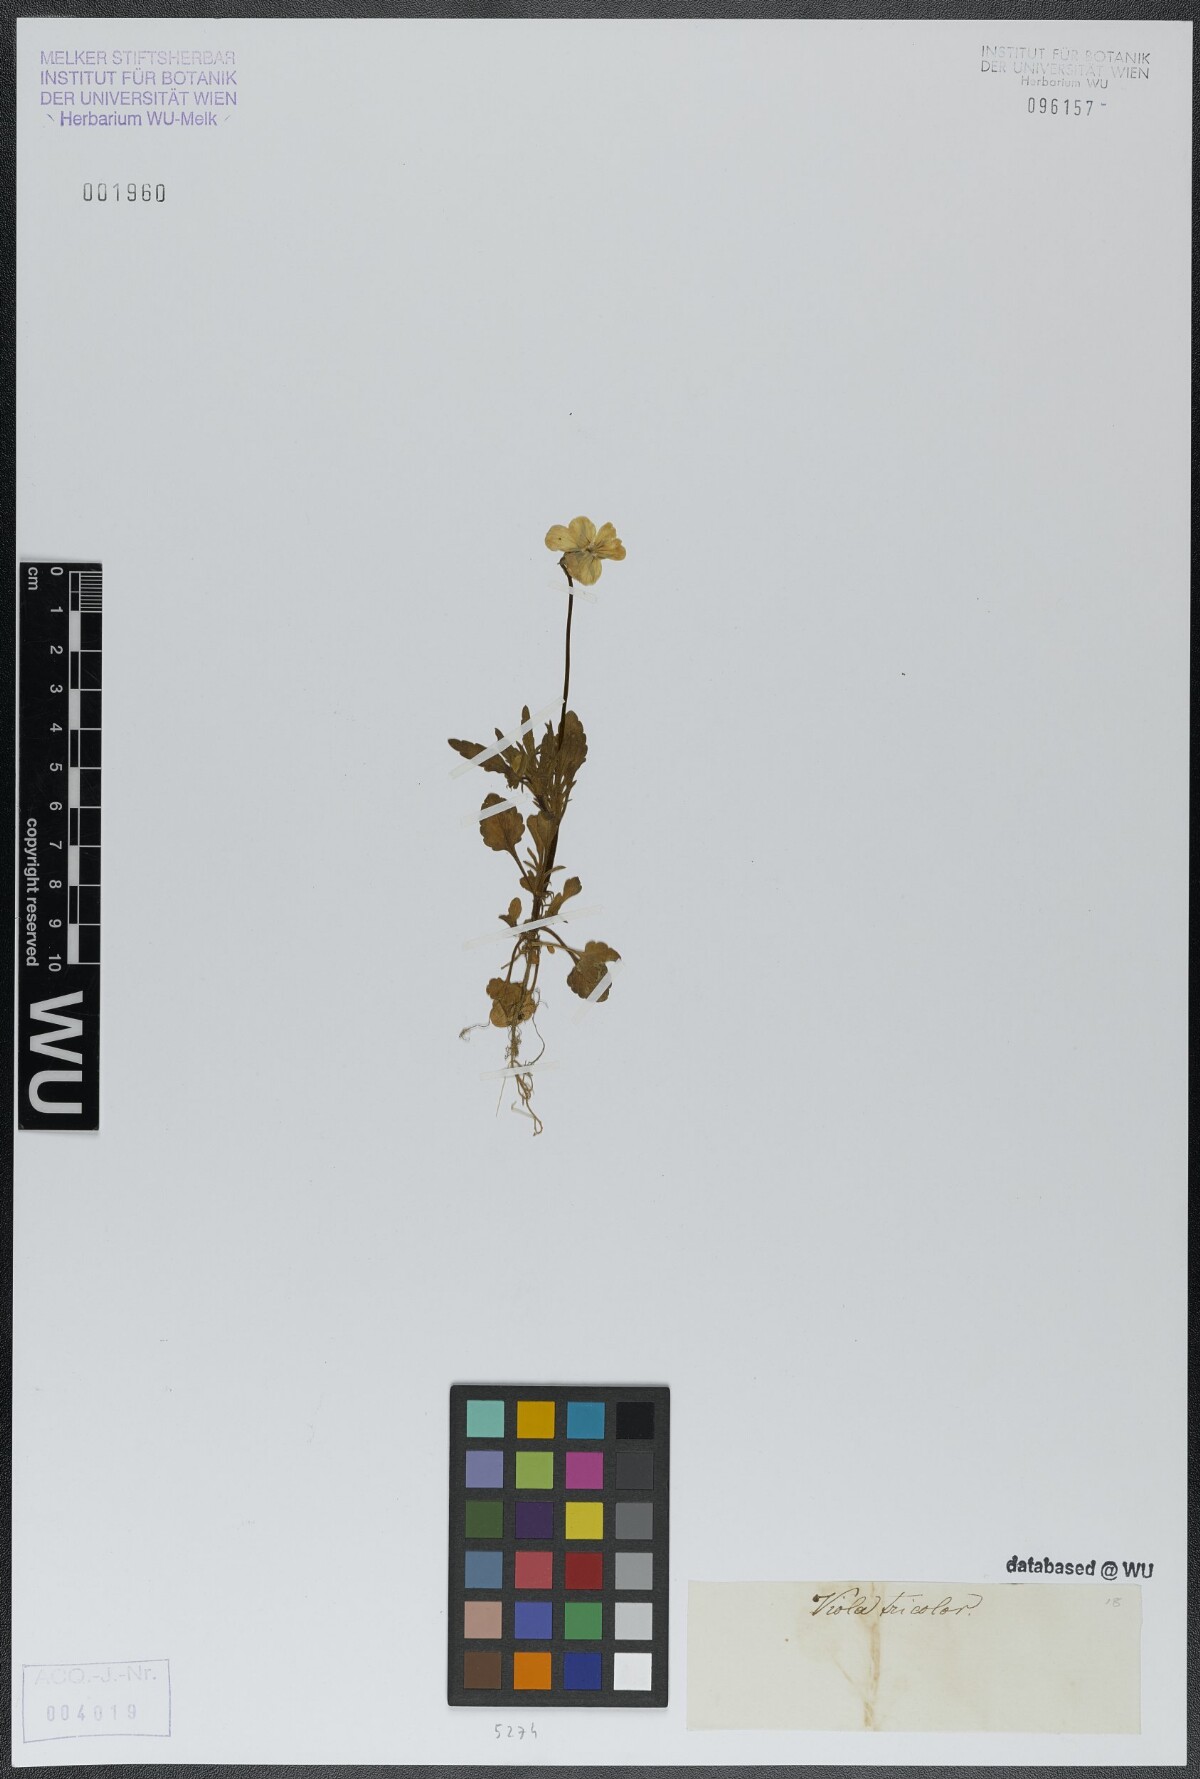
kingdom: Plantae
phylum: Tracheophyta
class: Magnoliopsida
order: Malpighiales
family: Violaceae
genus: Viola
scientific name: Viola tricolor
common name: Pansy
